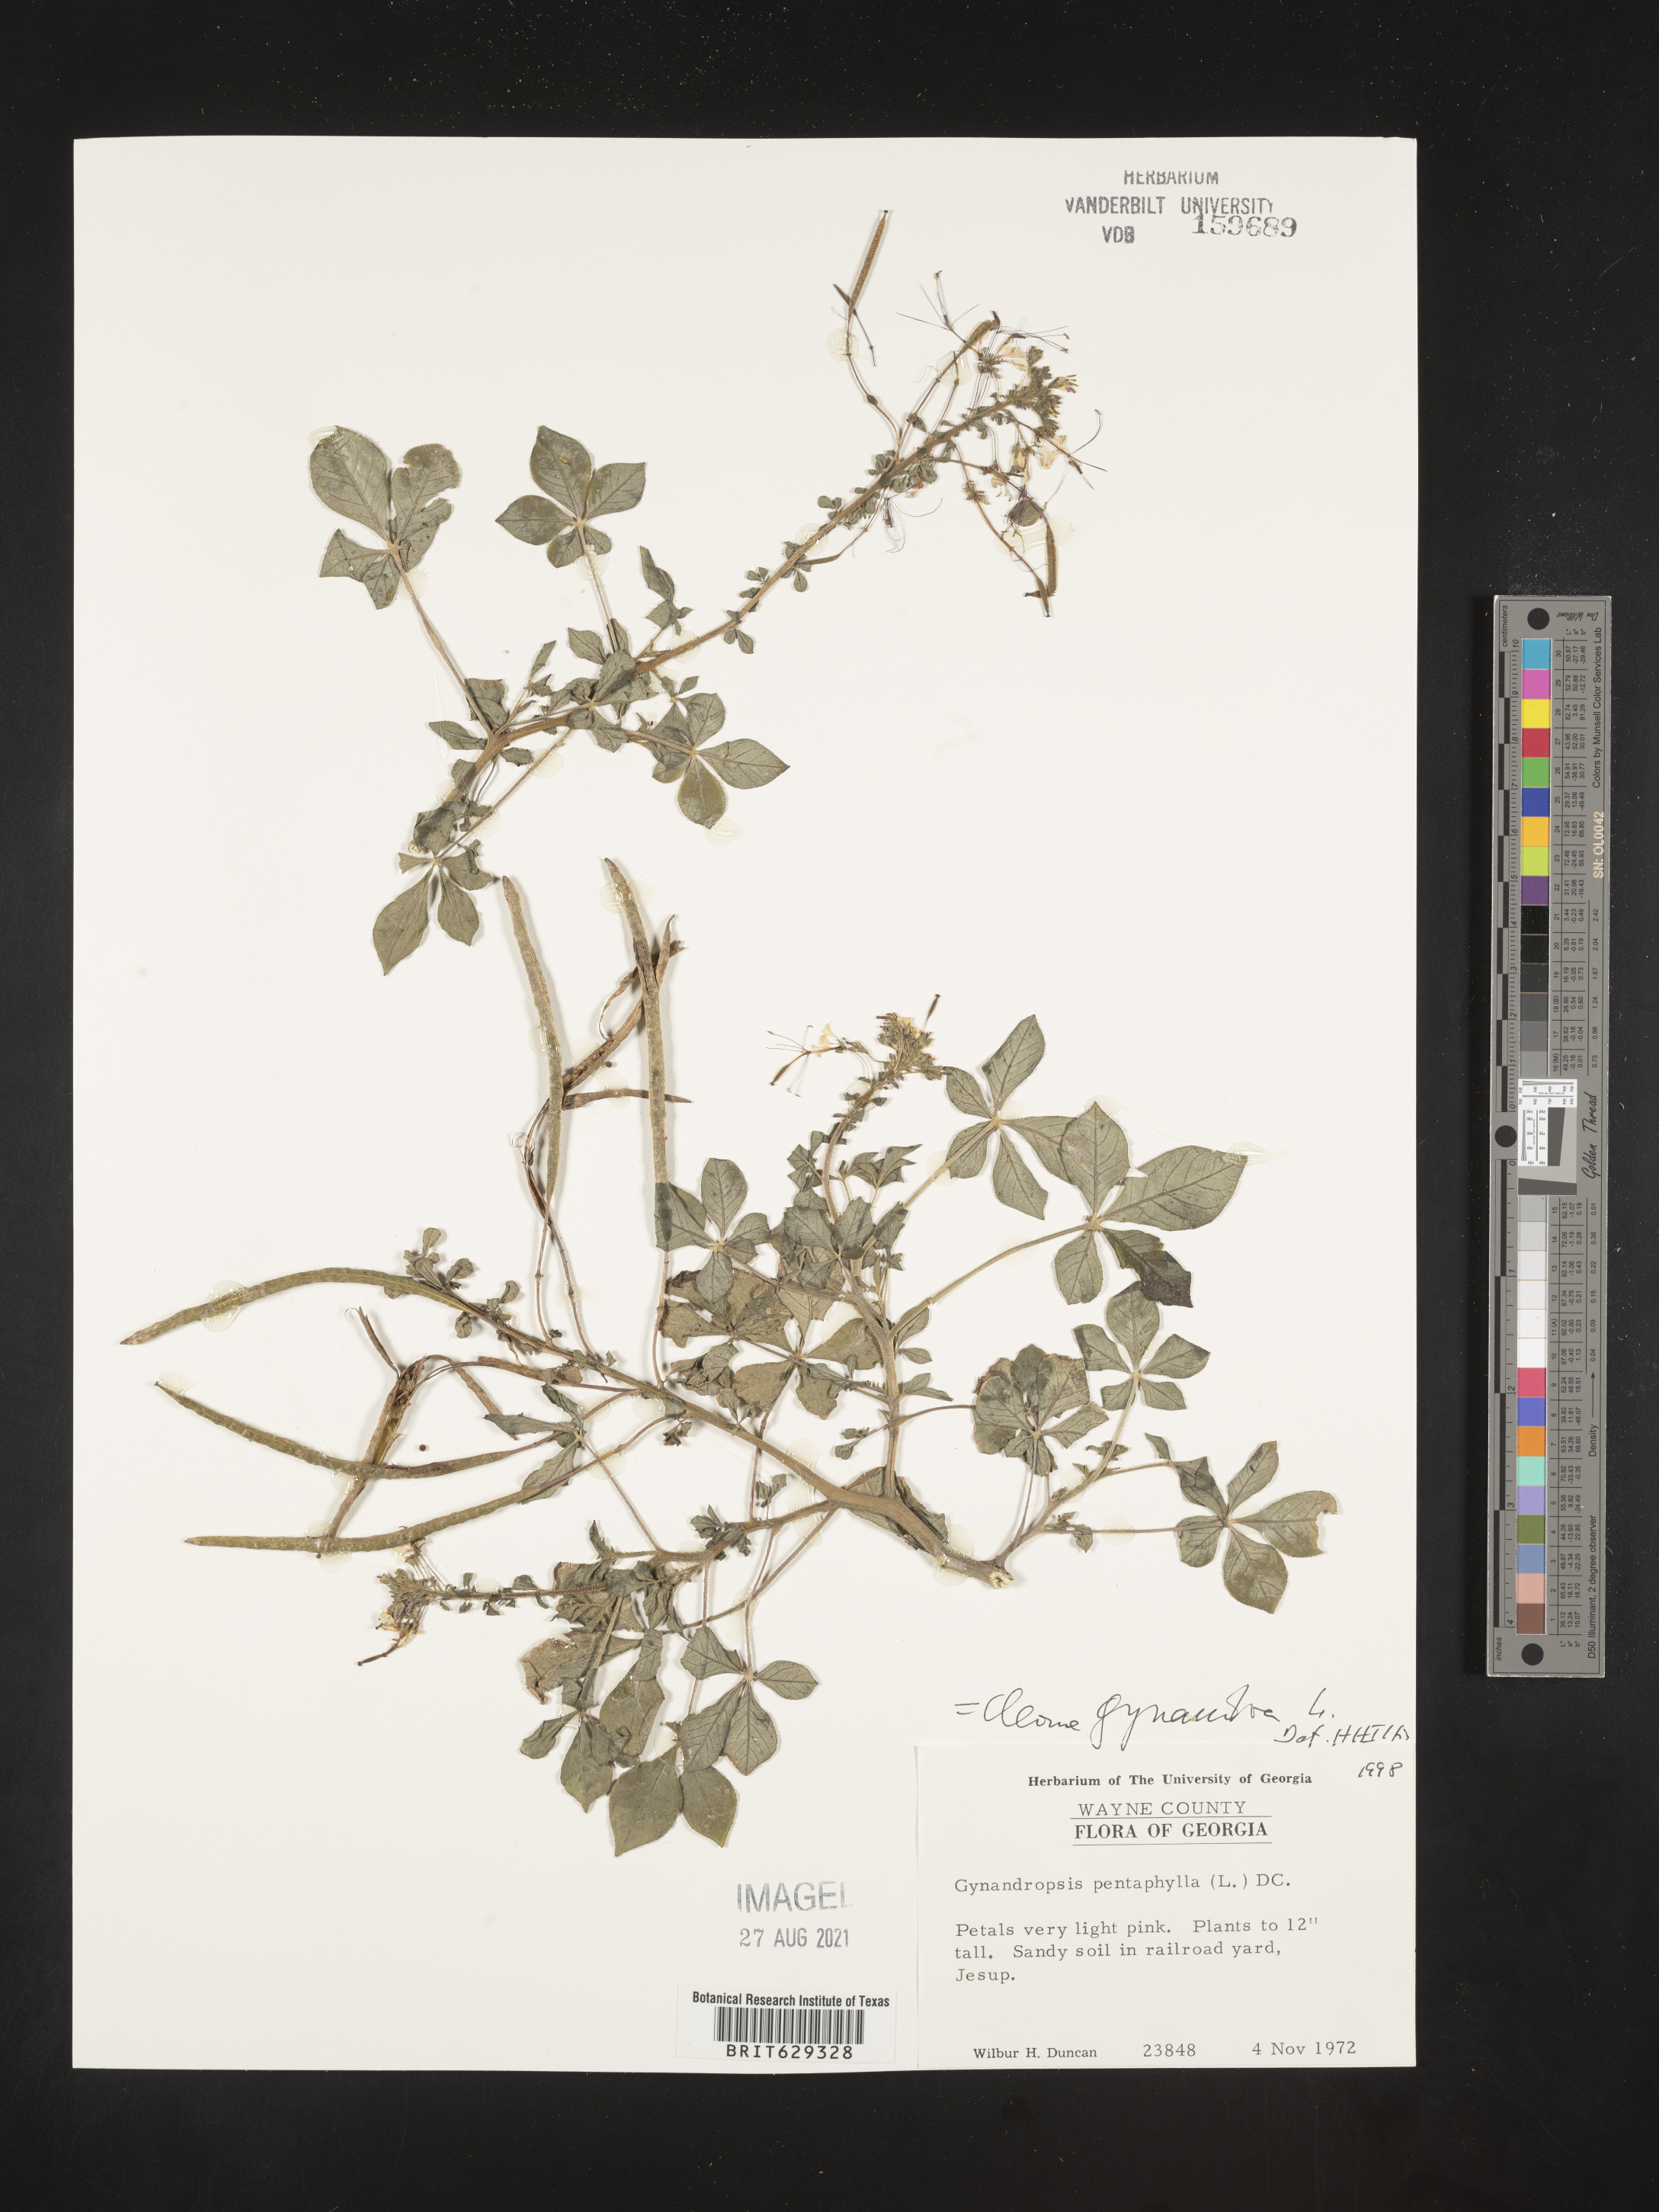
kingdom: Plantae
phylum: Tracheophyta
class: Magnoliopsida
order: Brassicales
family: Cleomaceae
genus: Gynandropsis
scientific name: Gynandropsis gynandra
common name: Spiderwisp
